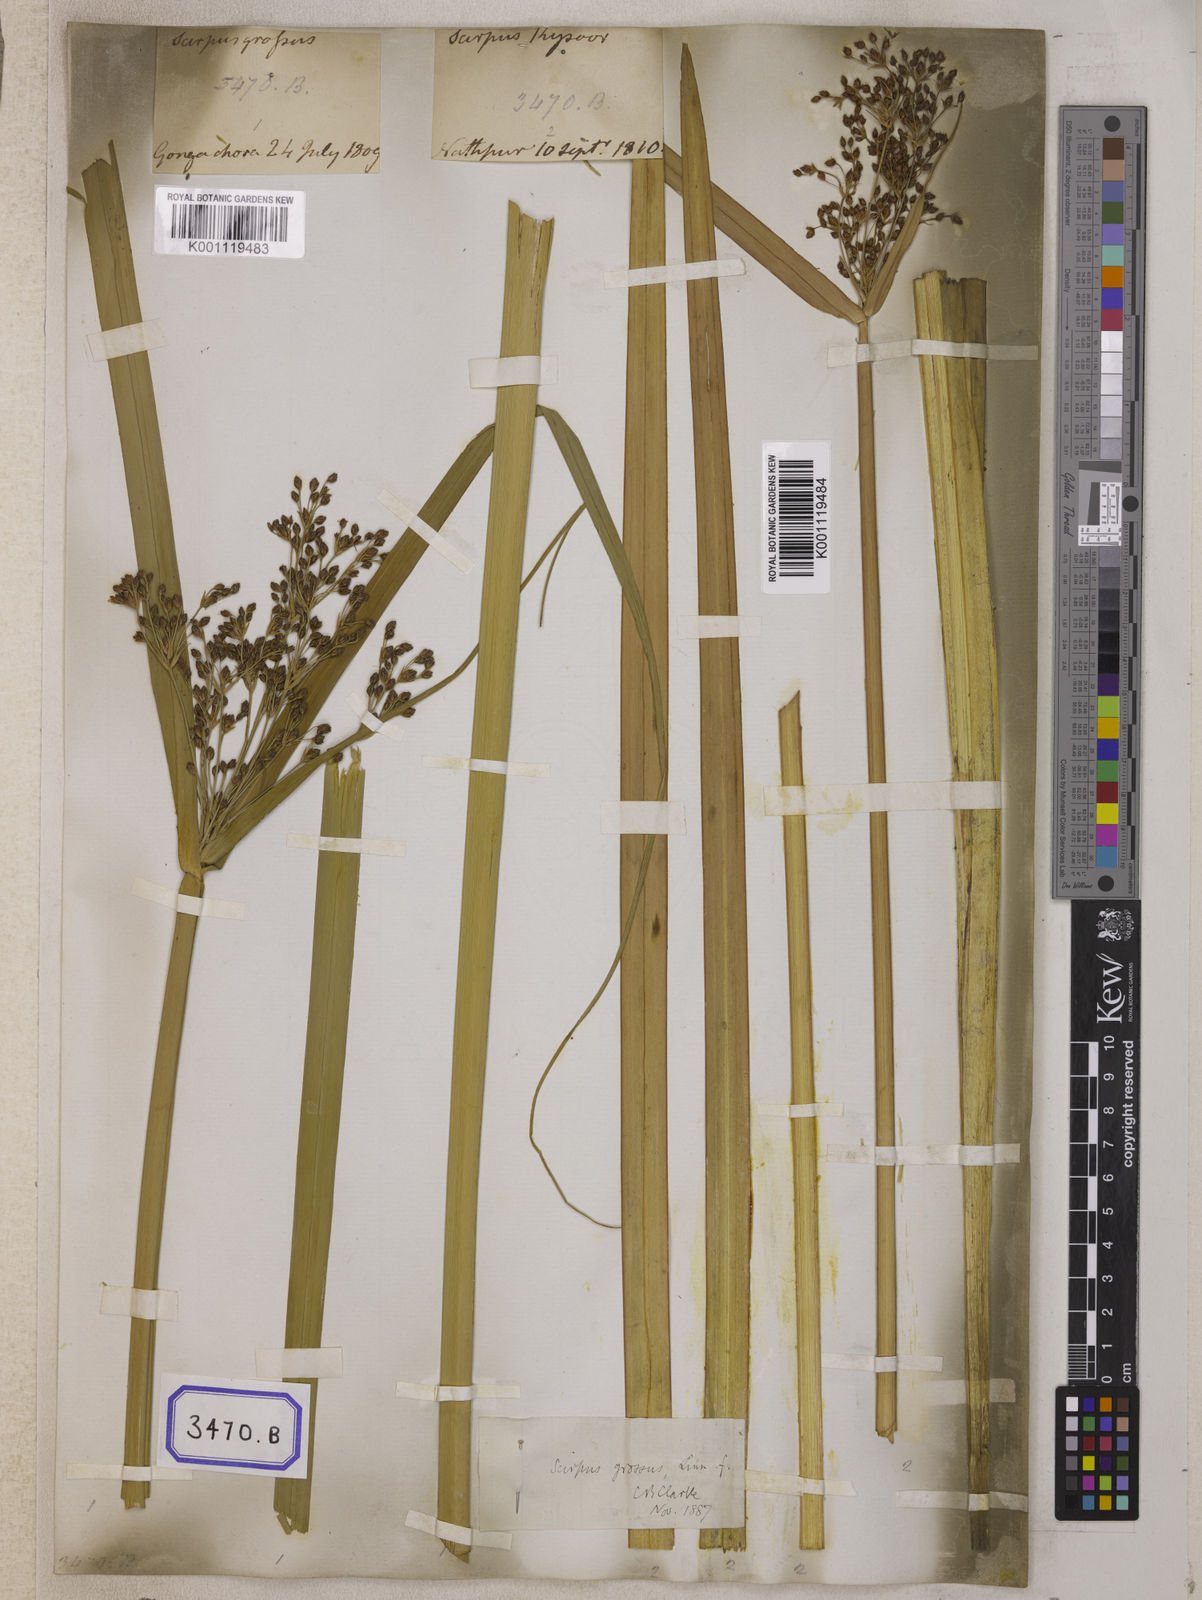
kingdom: Plantae
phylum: Tracheophyta
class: Liliopsida
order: Poales
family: Cyperaceae
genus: Isolepis
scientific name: Isolepis
